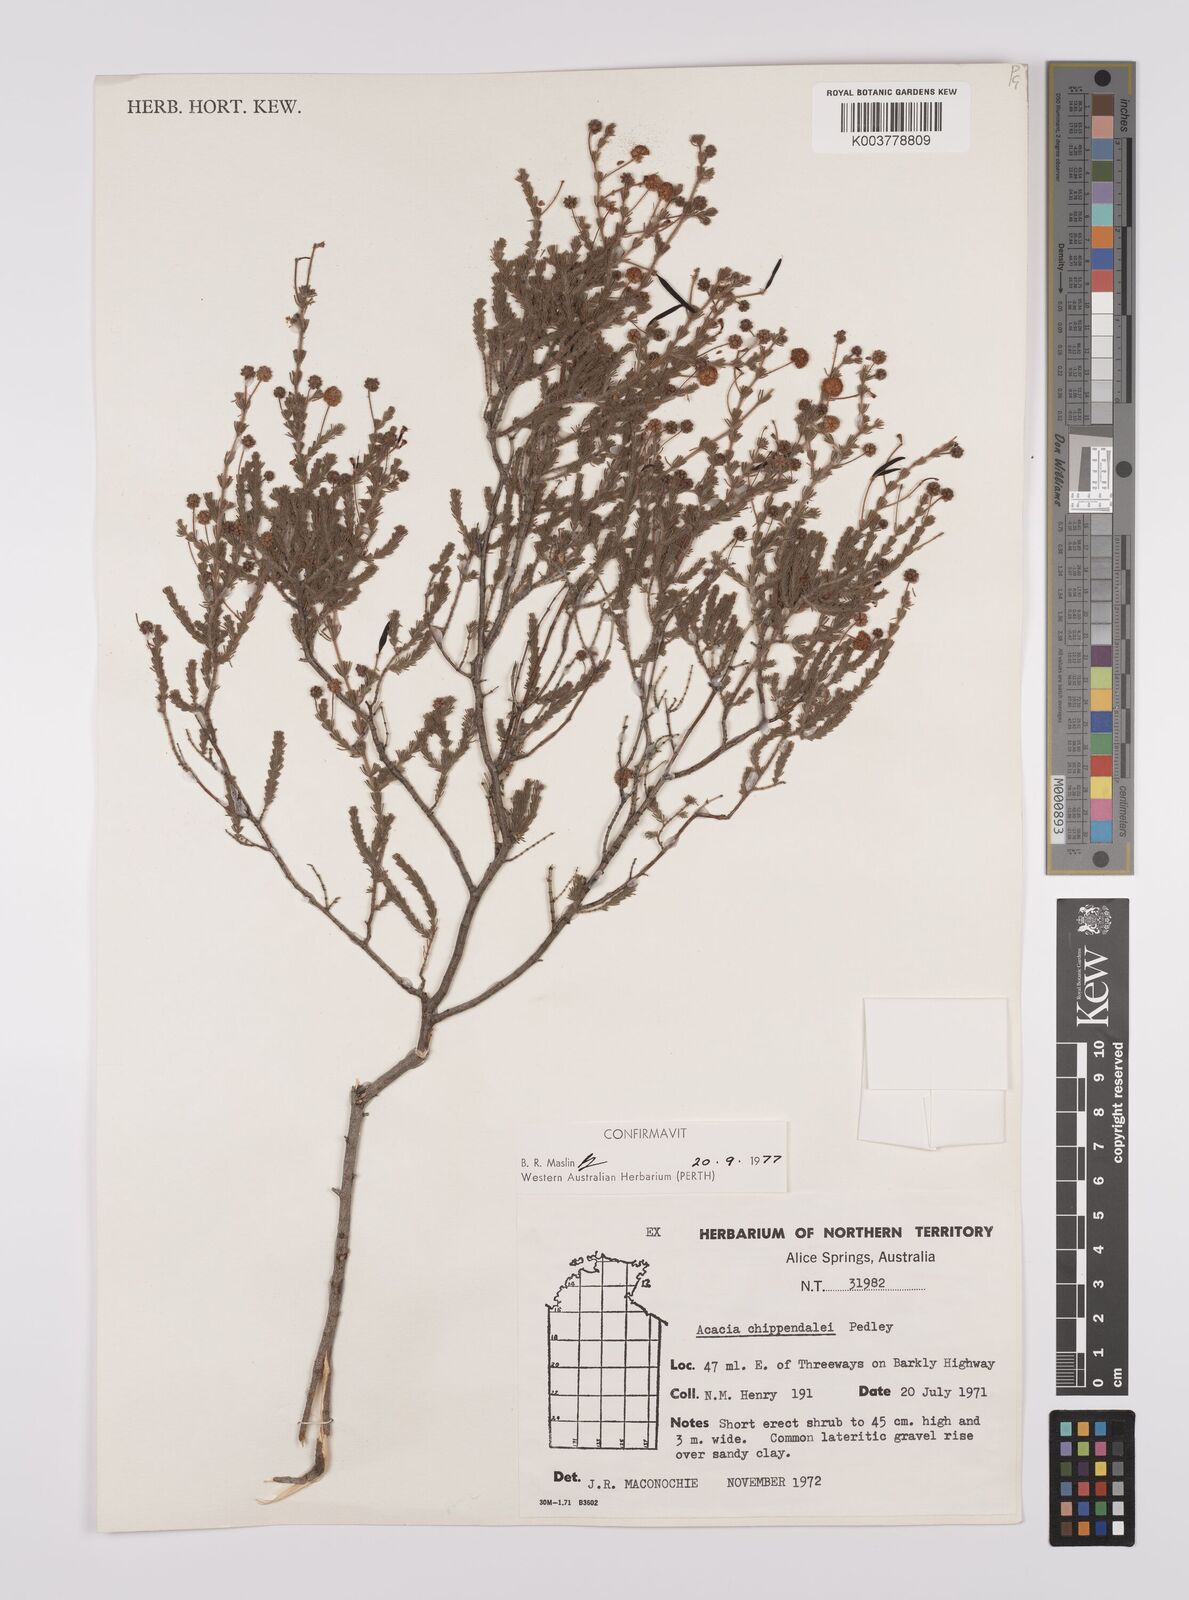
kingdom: Plantae
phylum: Tracheophyta
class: Magnoliopsida
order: Fabales
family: Fabaceae
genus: Acacia
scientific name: Acacia chippendalei
